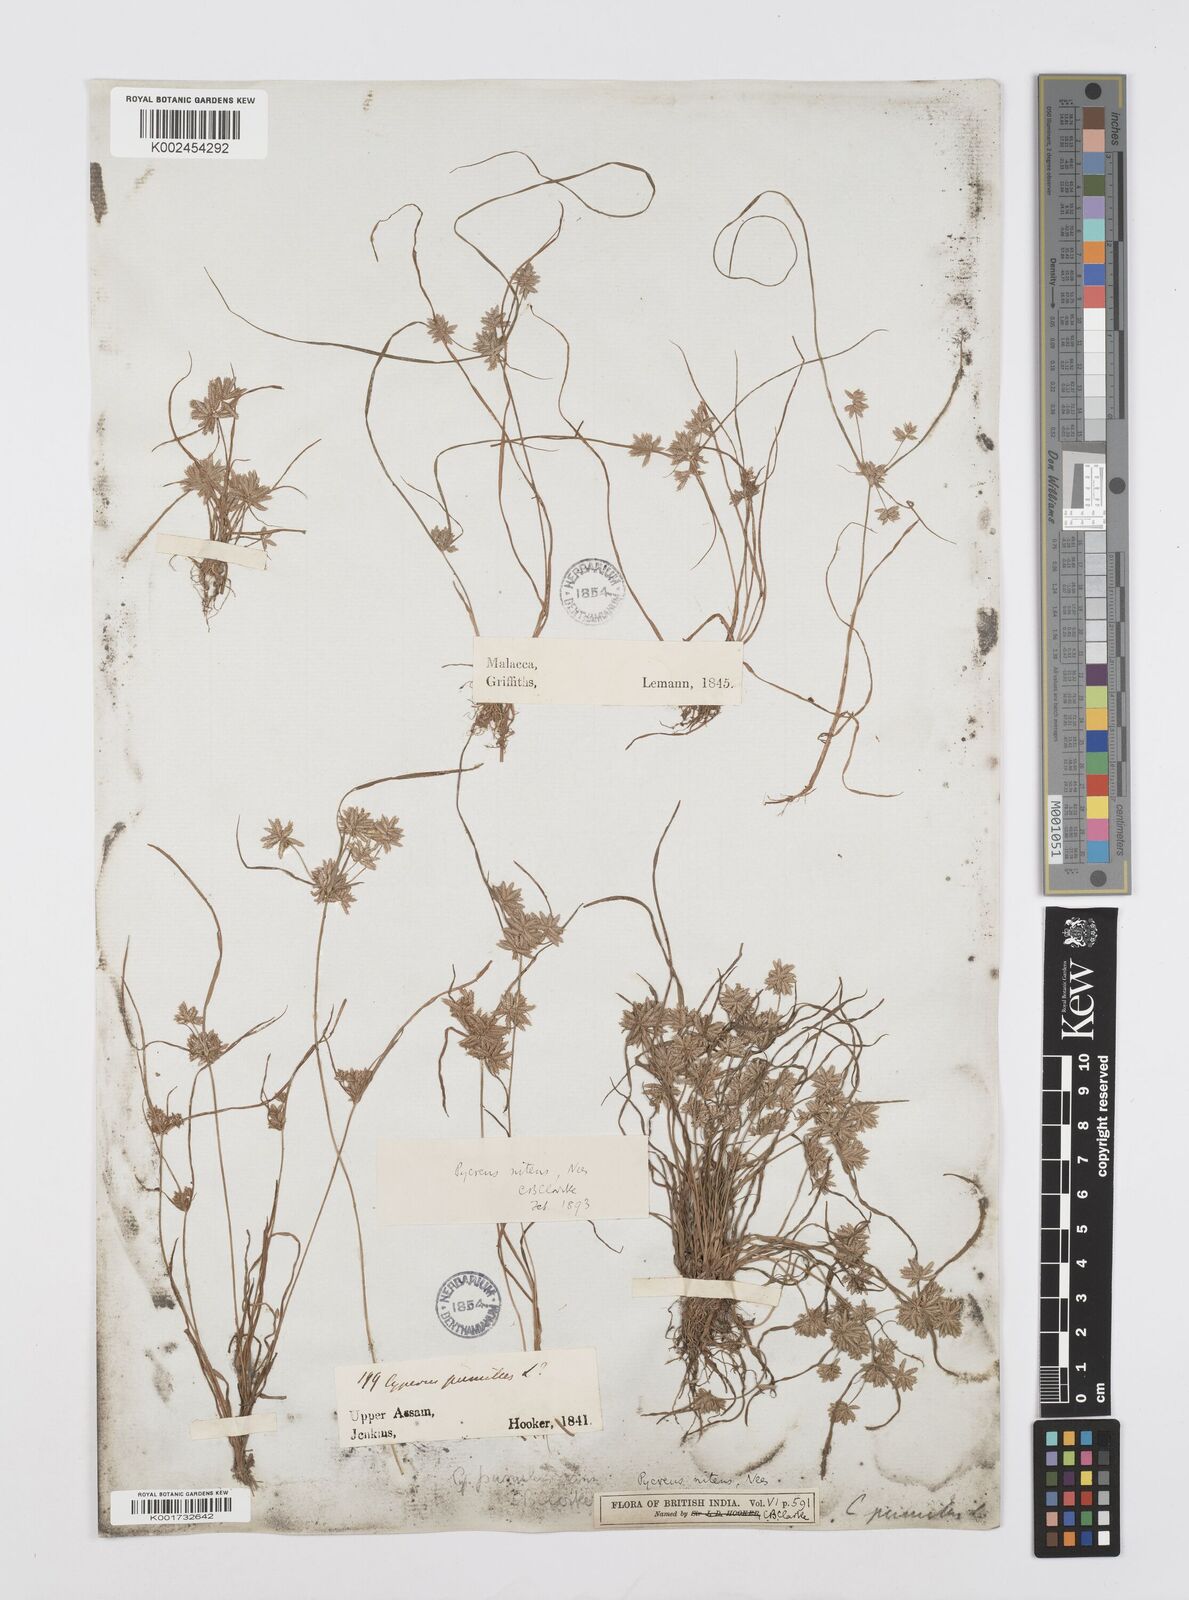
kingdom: Plantae
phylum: Tracheophyta
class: Liliopsida
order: Poales
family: Cyperaceae
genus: Cyperus
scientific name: Cyperus pumilus
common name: Low flatsedge
